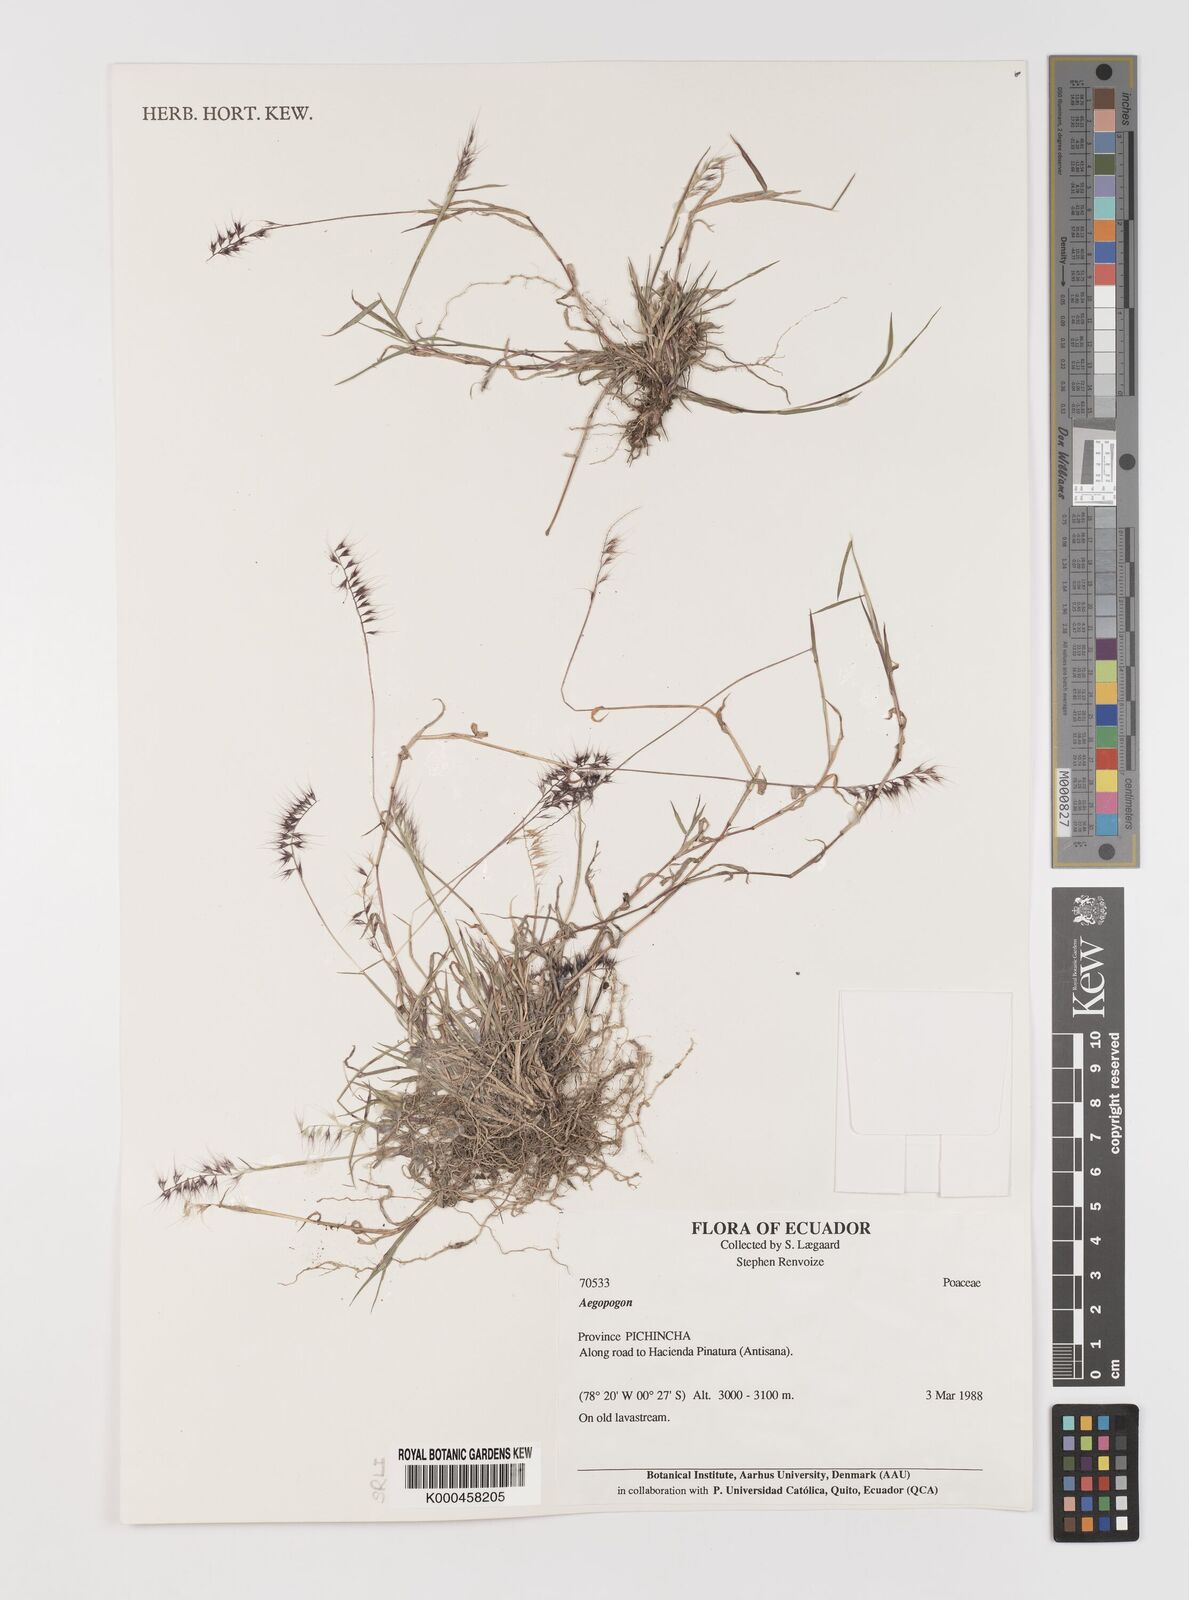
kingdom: Plantae
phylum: Tracheophyta
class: Liliopsida
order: Poales
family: Poaceae
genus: Muhlenbergia
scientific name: Muhlenbergia
